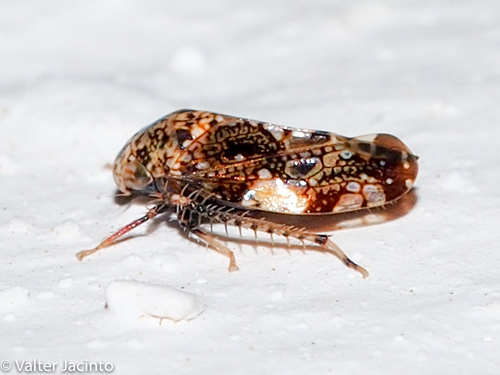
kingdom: Animalia
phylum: Arthropoda
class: Insecta
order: Hemiptera
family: Cicadellidae
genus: Penthimiola
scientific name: Penthimiola bella
